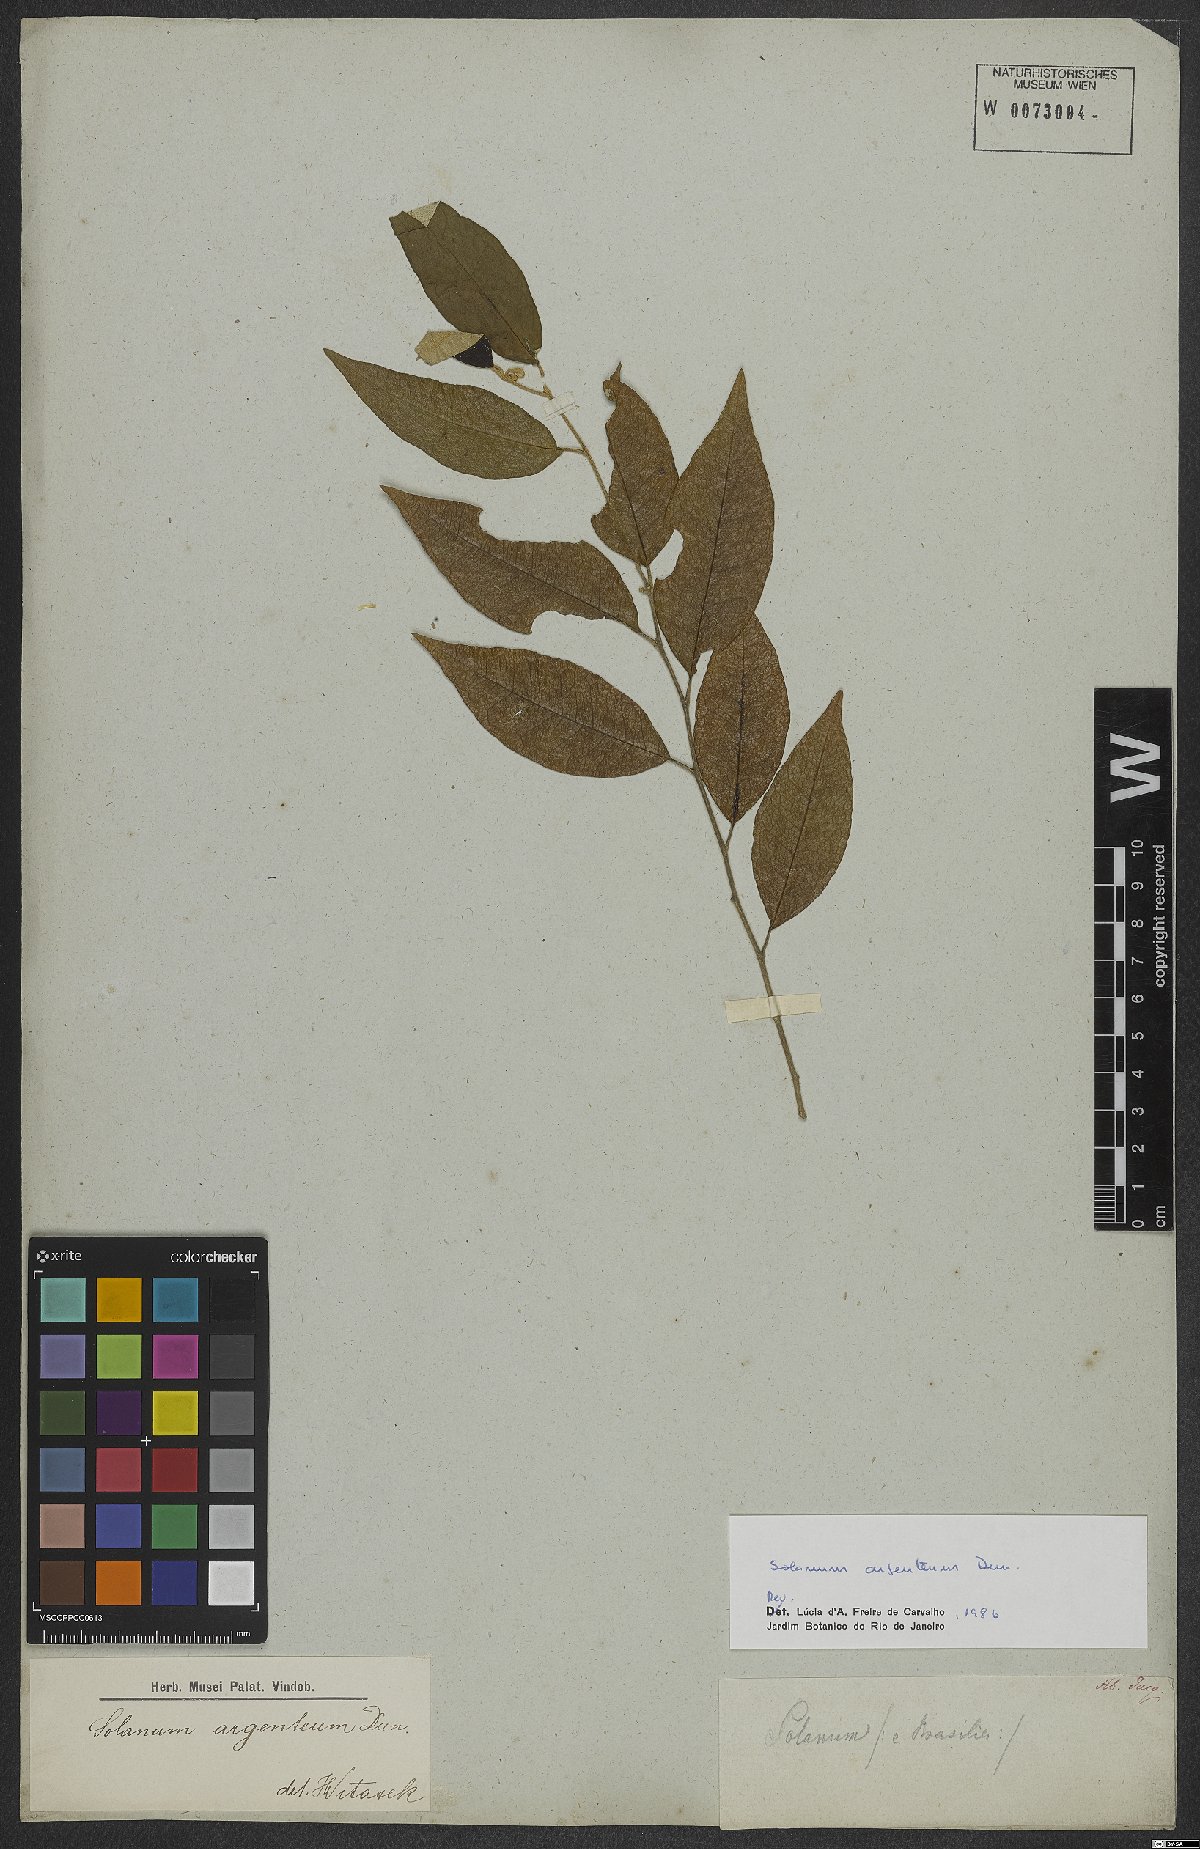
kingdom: Plantae
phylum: Tracheophyta
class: Magnoliopsida
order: Solanales
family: Solanaceae
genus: Solanum
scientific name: Solanum swartzianum
